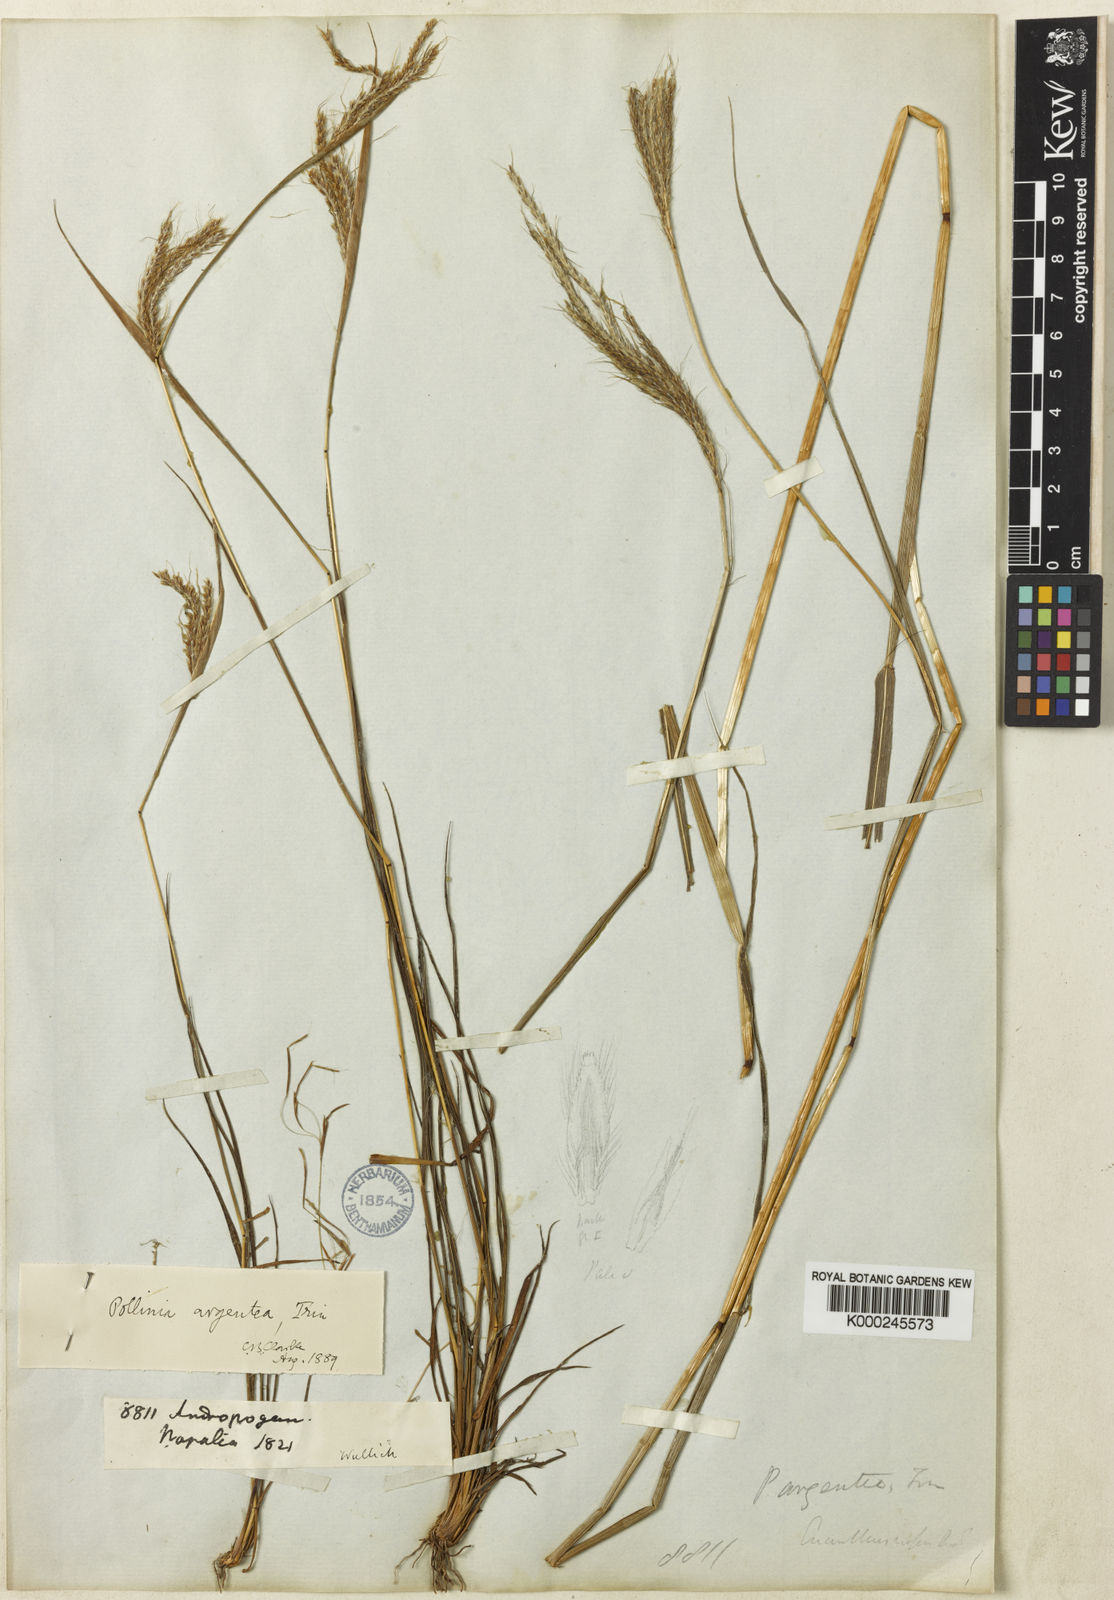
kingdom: Plantae
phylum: Tracheophyta
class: Liliopsida
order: Poales
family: Poaceae
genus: Pseudopogonatherum
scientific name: Pseudopogonatherum trispicatum
